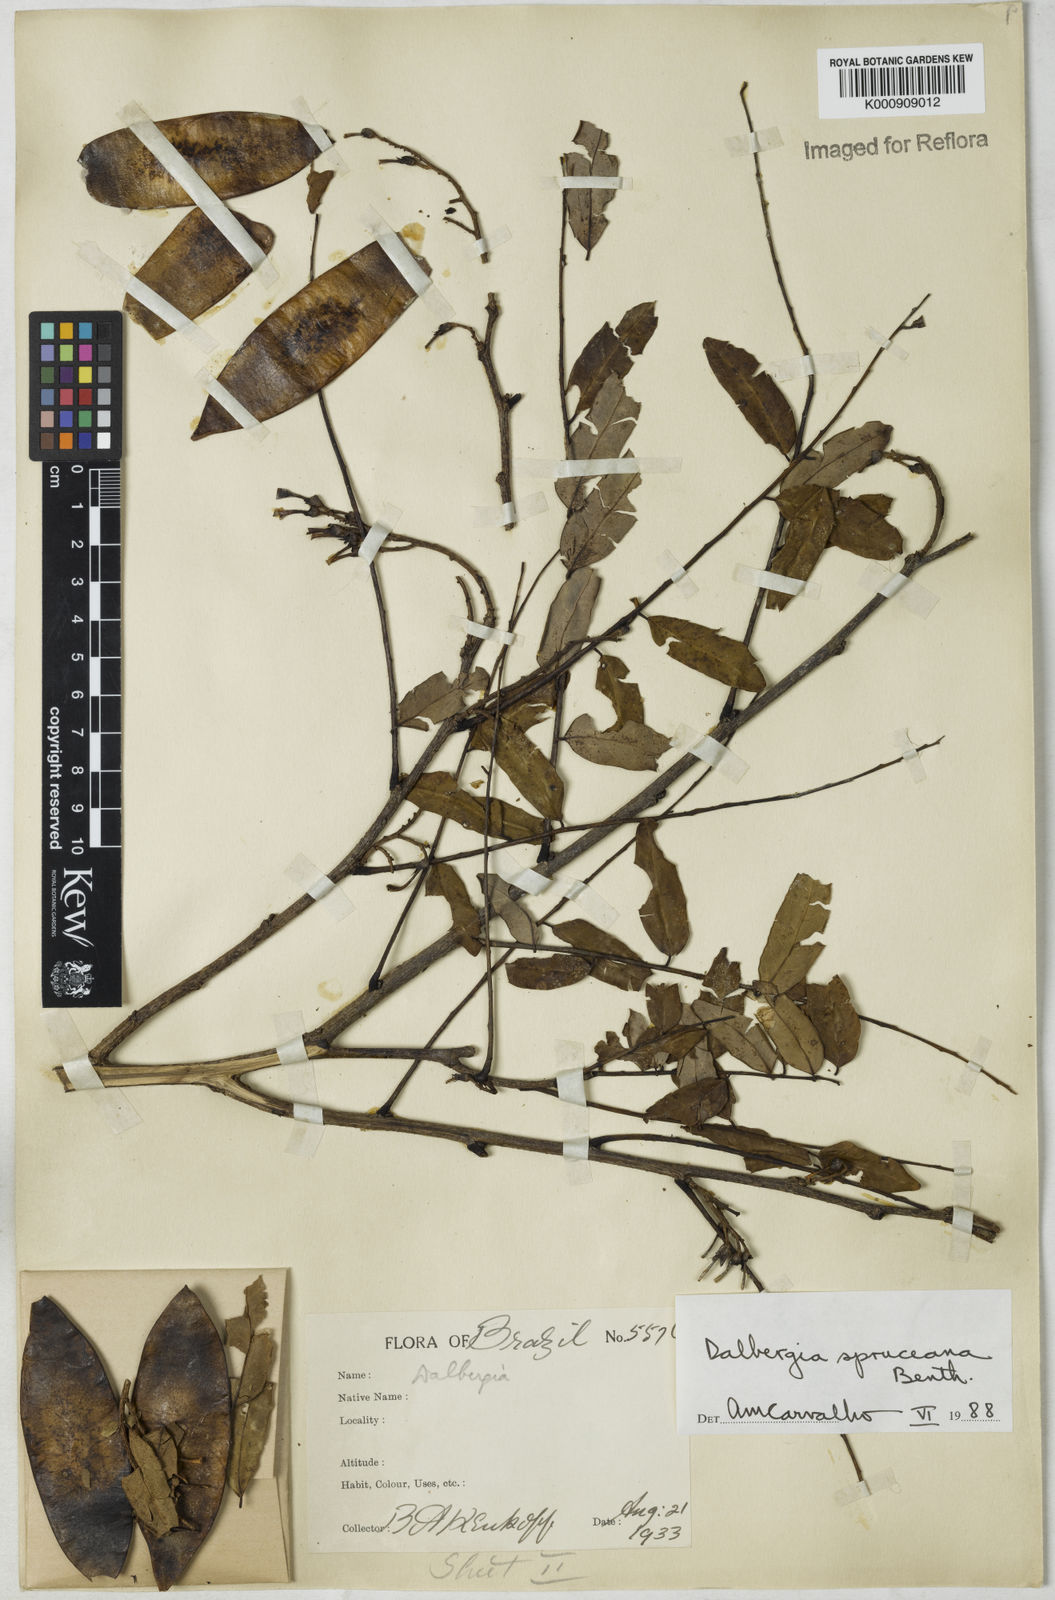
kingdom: Plantae
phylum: Tracheophyta
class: Magnoliopsida
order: Fabales
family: Fabaceae
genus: Dalbergia
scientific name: Dalbergia spruceana
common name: Amazon rosewood
